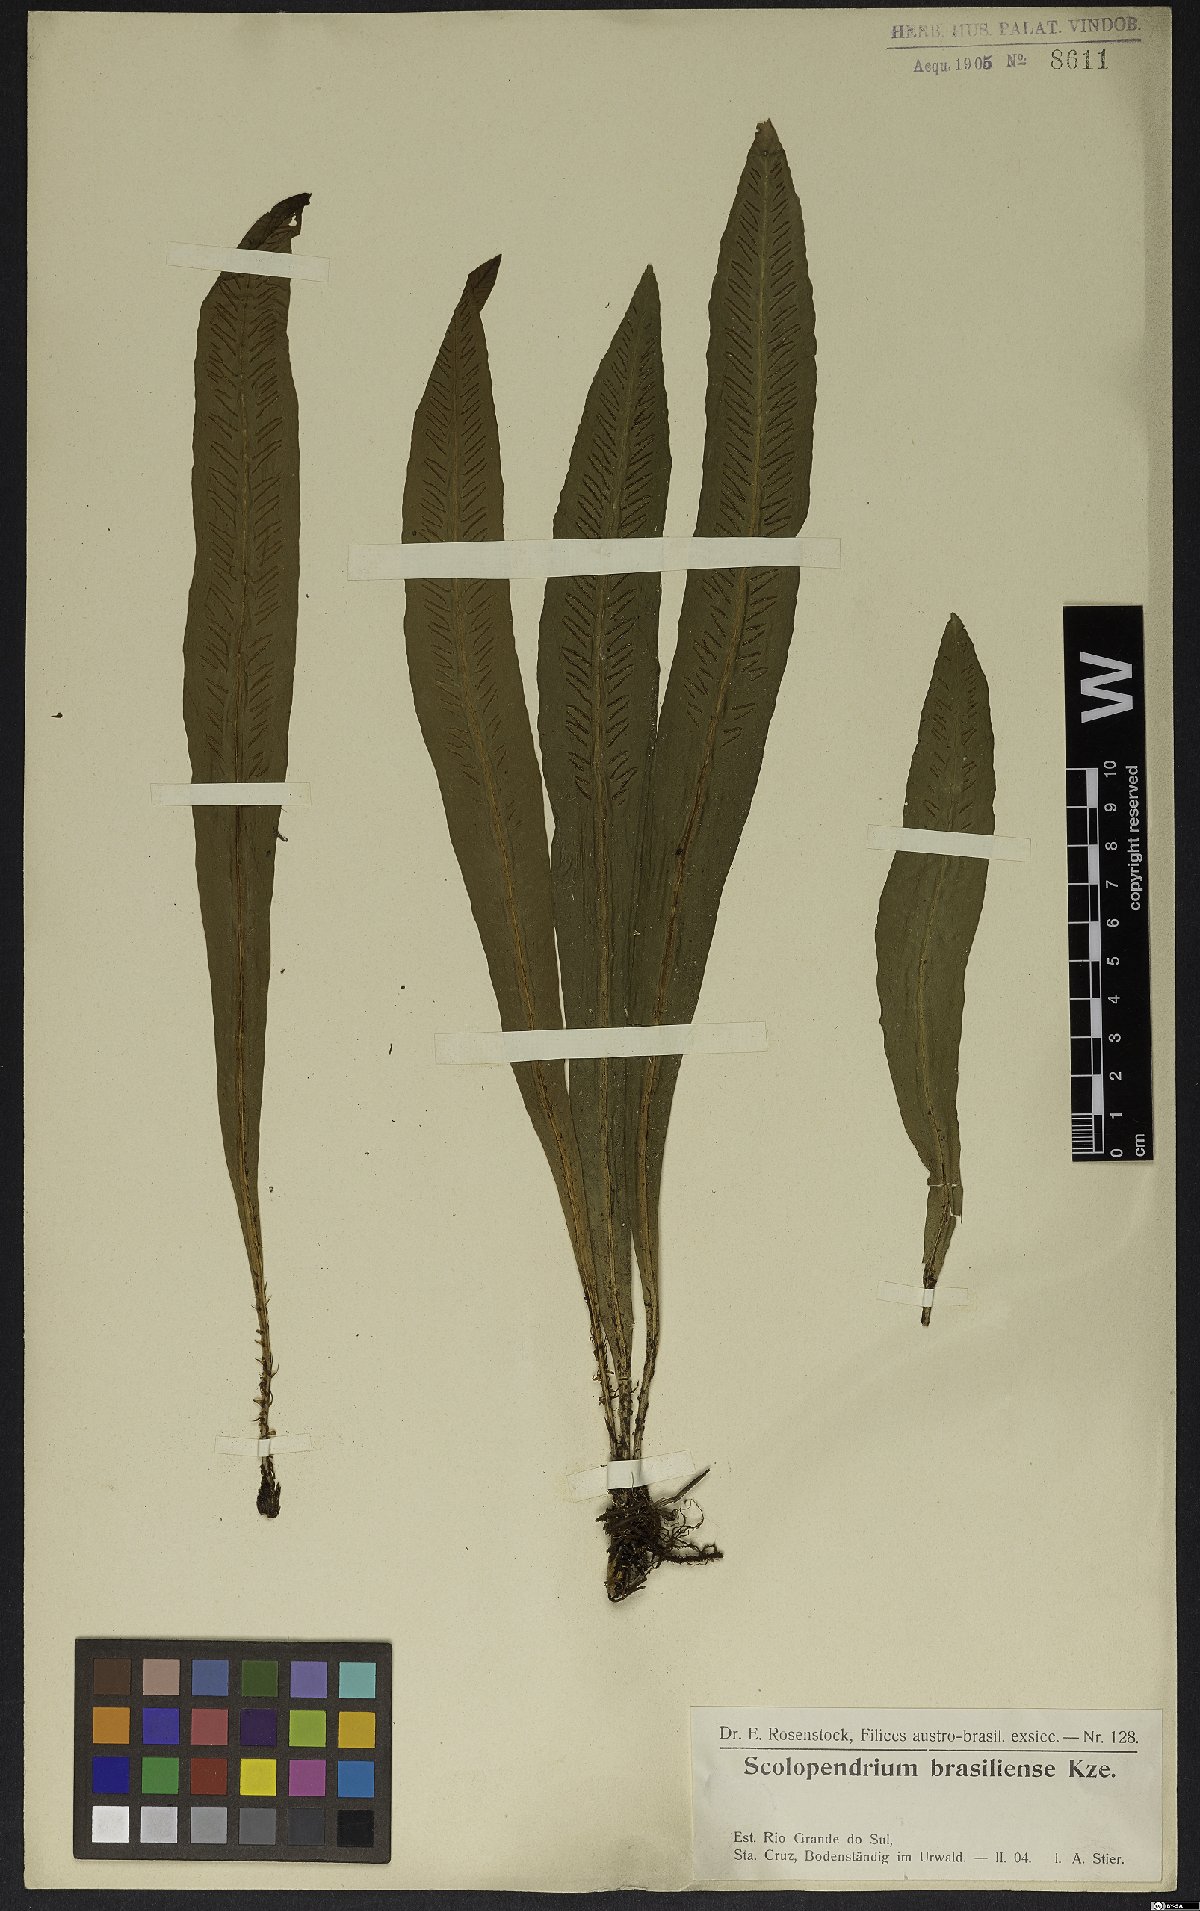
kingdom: Plantae
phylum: Tracheophyta
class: Polypodiopsida
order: Polypodiales
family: Aspleniaceae
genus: Asplenium
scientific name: Asplenium brasiliense
